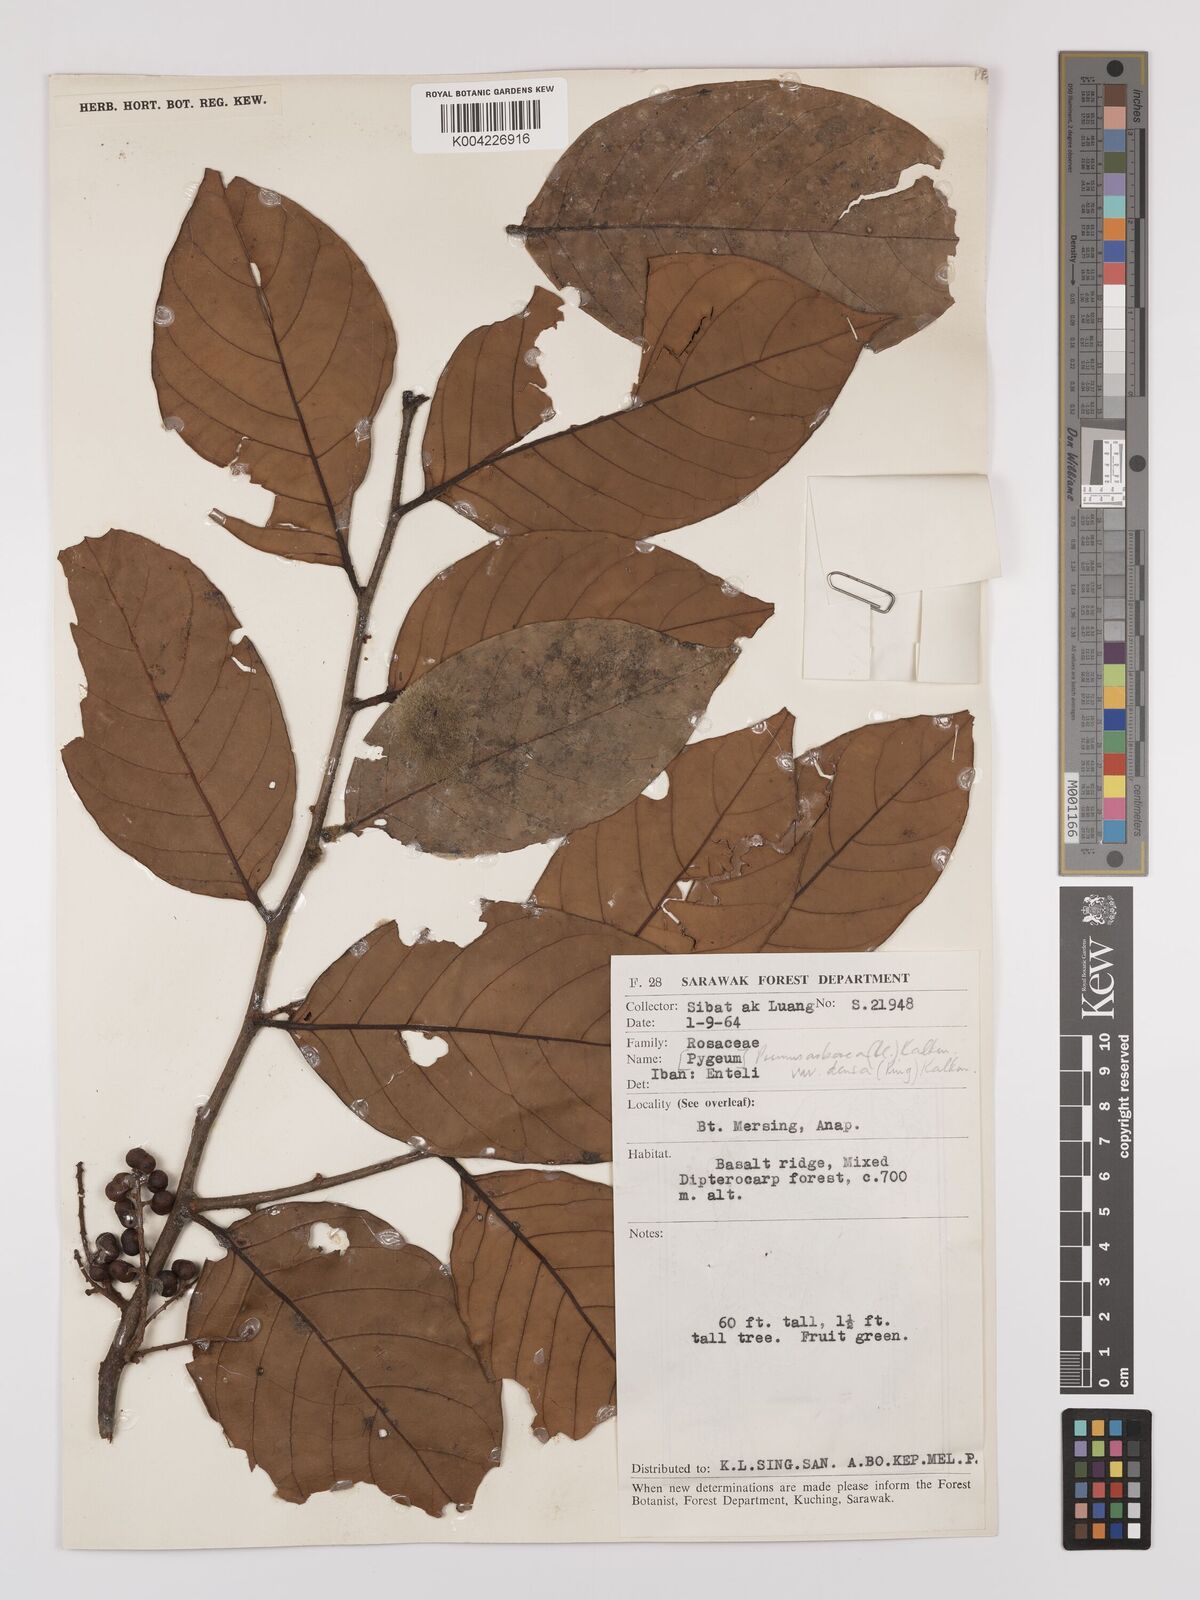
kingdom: Plantae
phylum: Tracheophyta
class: Magnoliopsida
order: Rosales
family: Rosaceae
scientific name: Rosaceae
